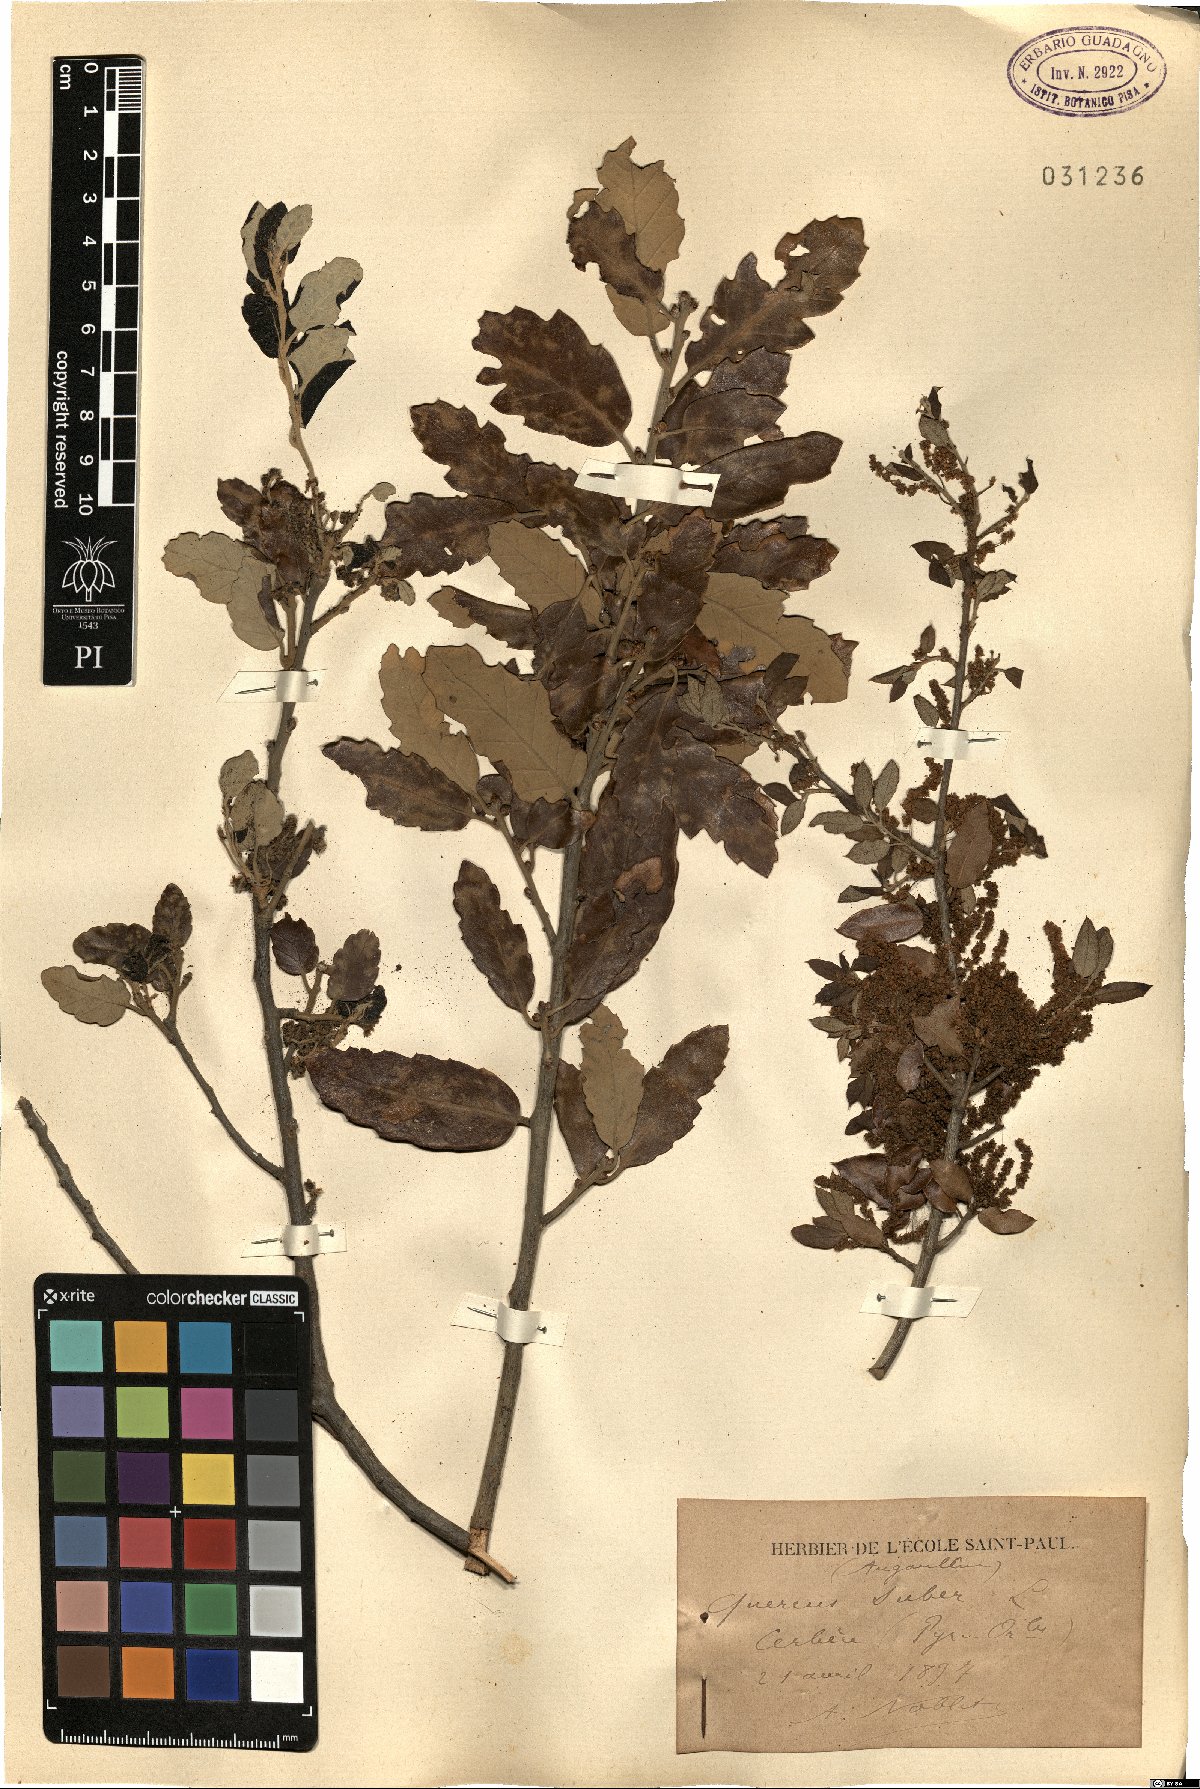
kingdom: Plantae
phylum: Tracheophyta
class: Magnoliopsida
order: Fagales
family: Fagaceae
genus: Quercus
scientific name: Quercus suber
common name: Cork oak
